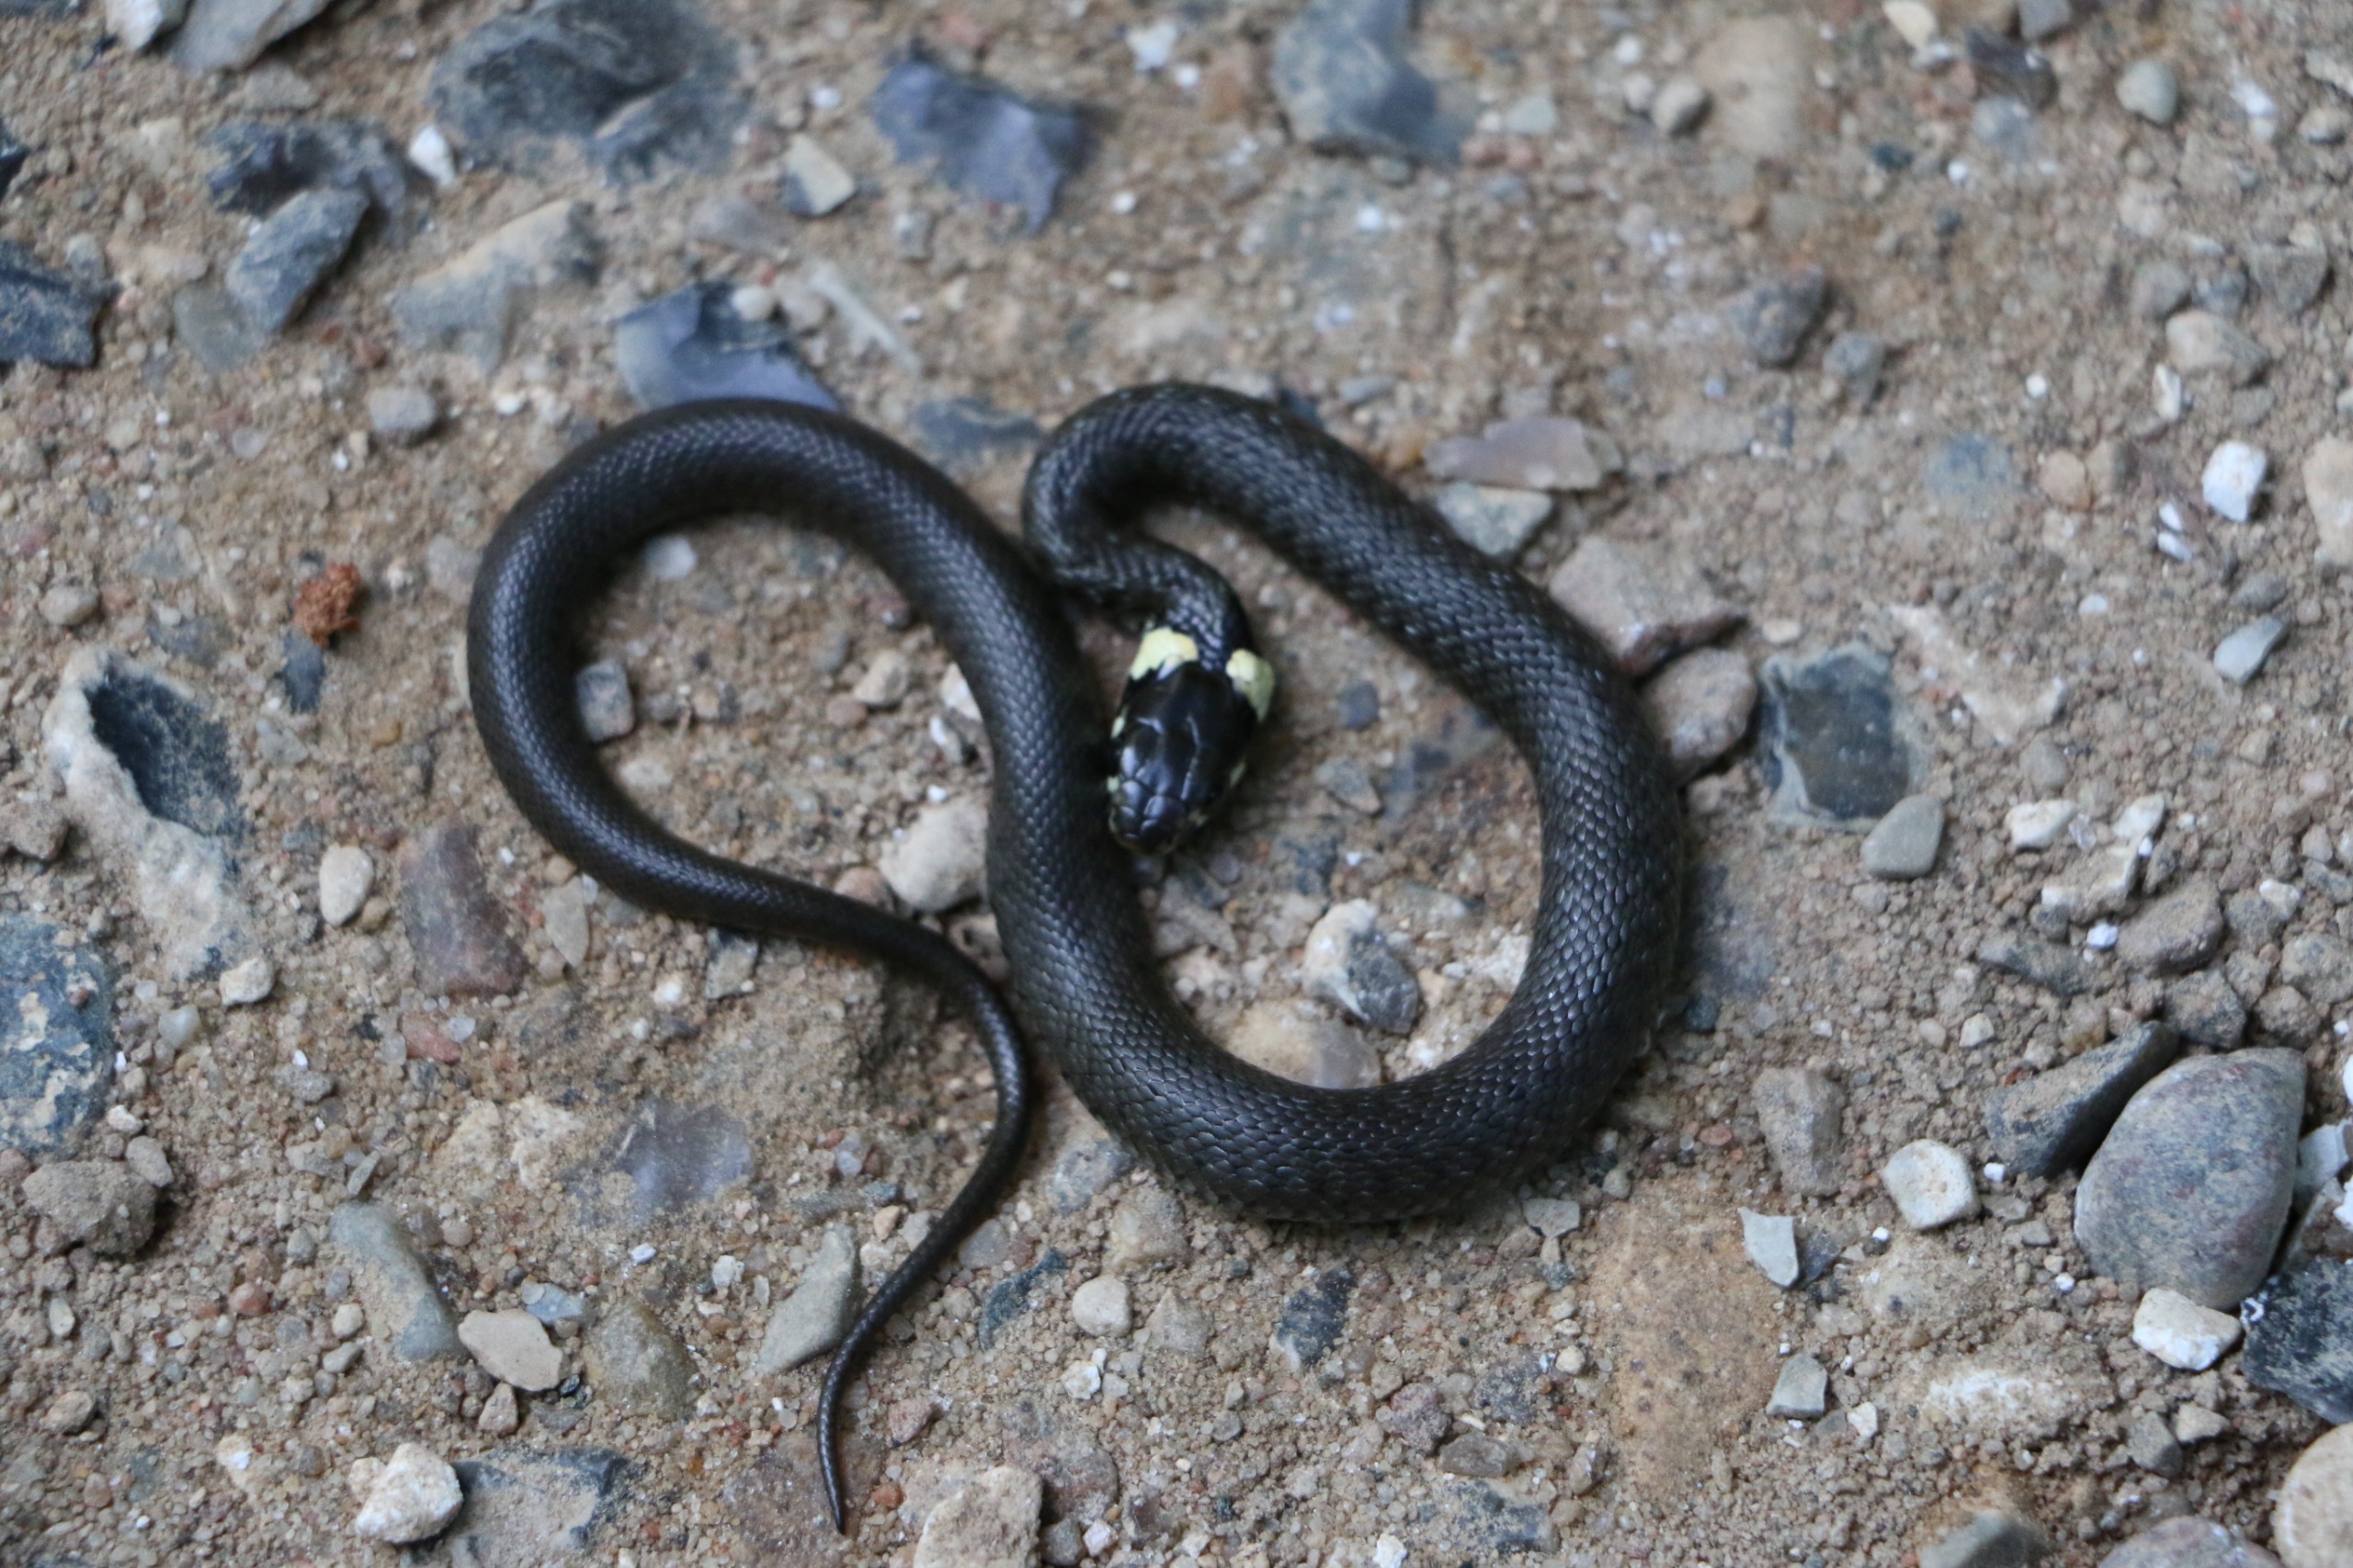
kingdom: Animalia
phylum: Chordata
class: Squamata
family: Colubridae
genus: Natrix
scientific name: Natrix natrix
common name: Snog
